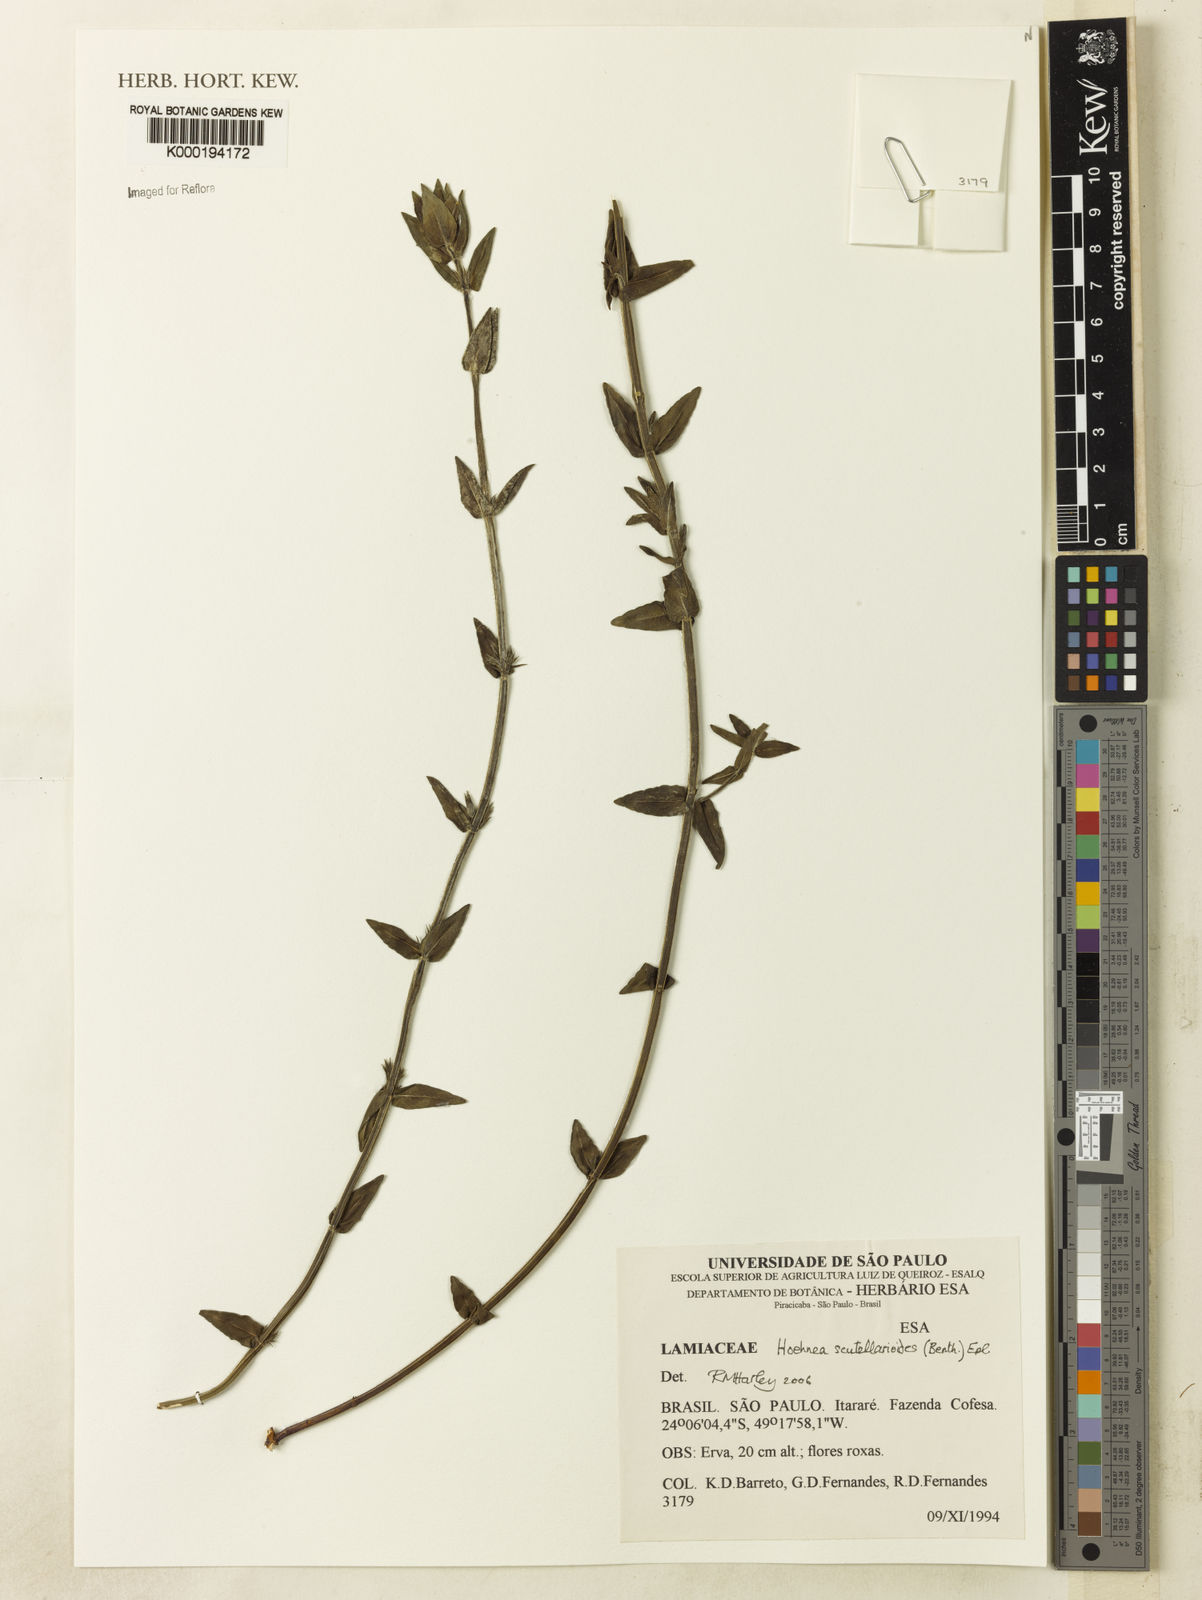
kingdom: Plantae
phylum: Tracheophyta
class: Magnoliopsida
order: Lamiales
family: Lamiaceae
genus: Hoehnea
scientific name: Hoehnea scutellarioides
